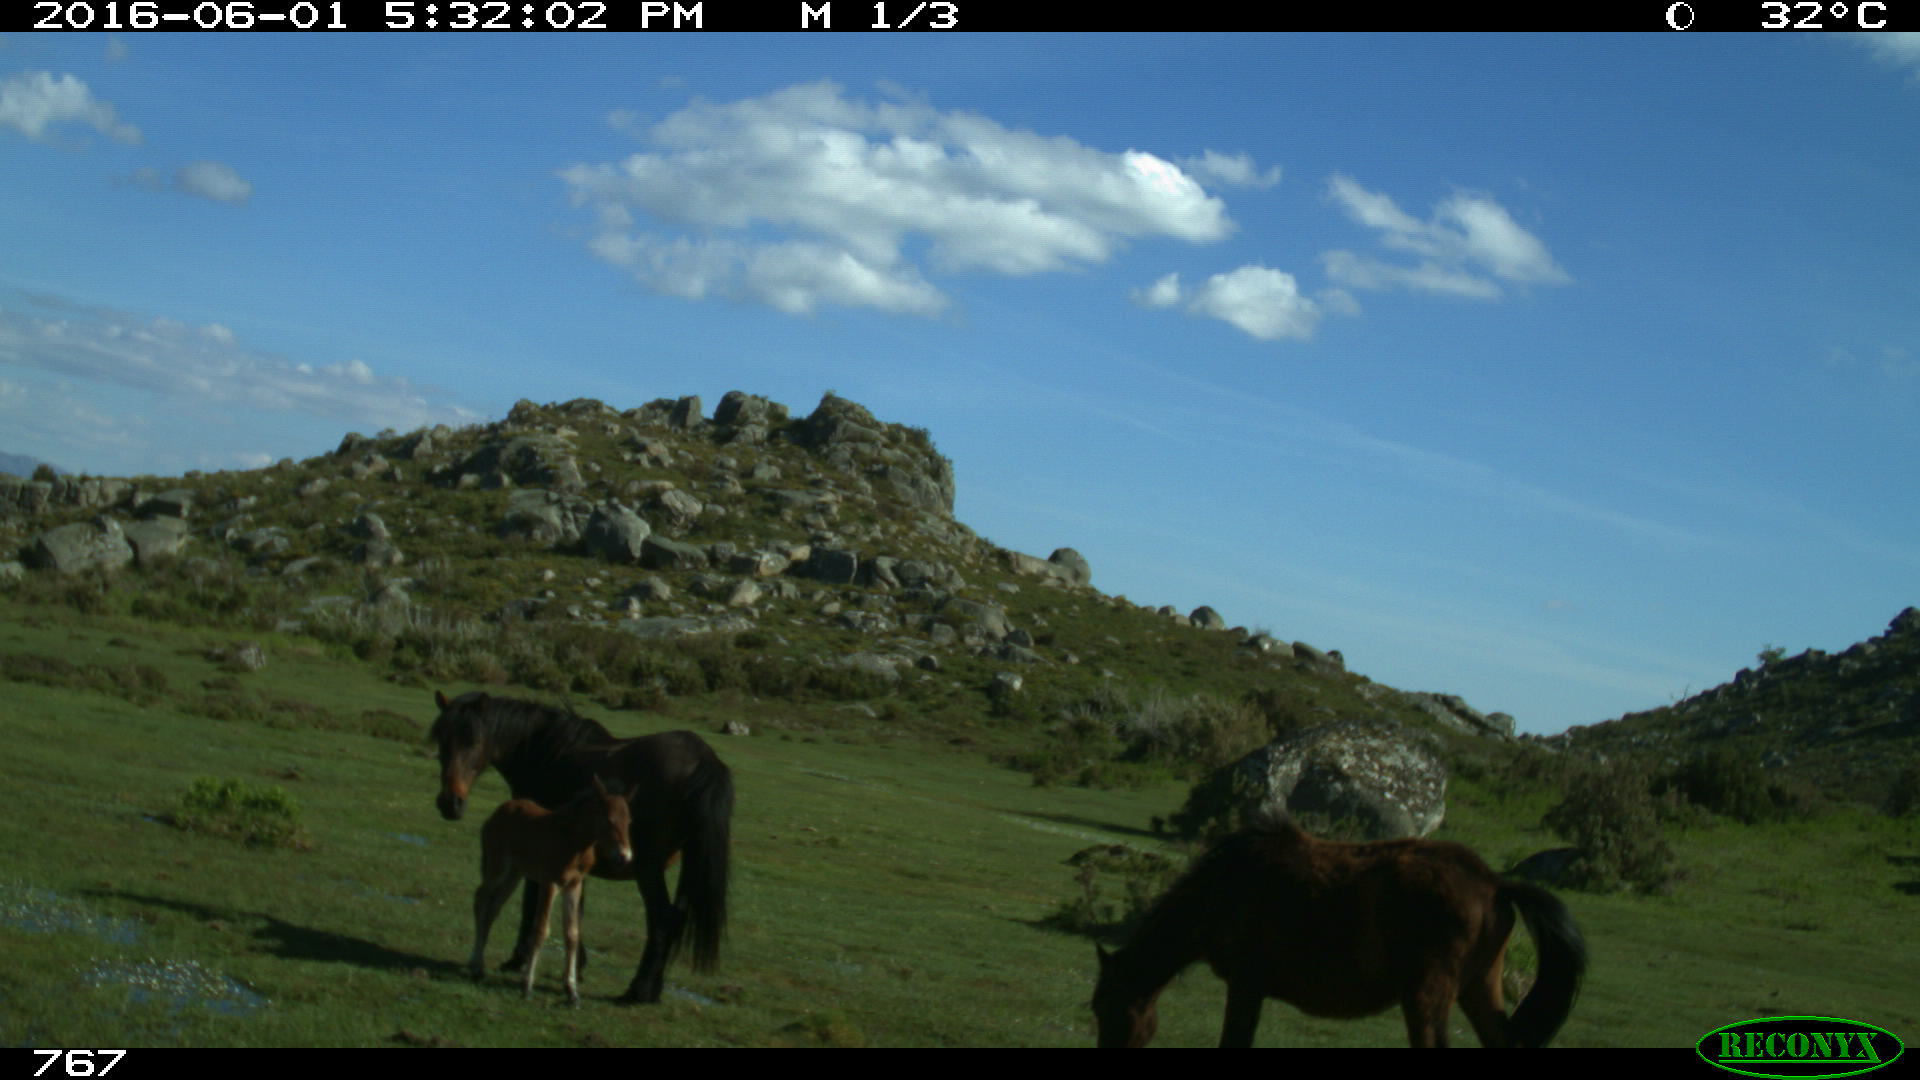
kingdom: Animalia
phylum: Chordata
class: Mammalia
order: Perissodactyla
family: Equidae
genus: Equus
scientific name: Equus caballus
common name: Horse
